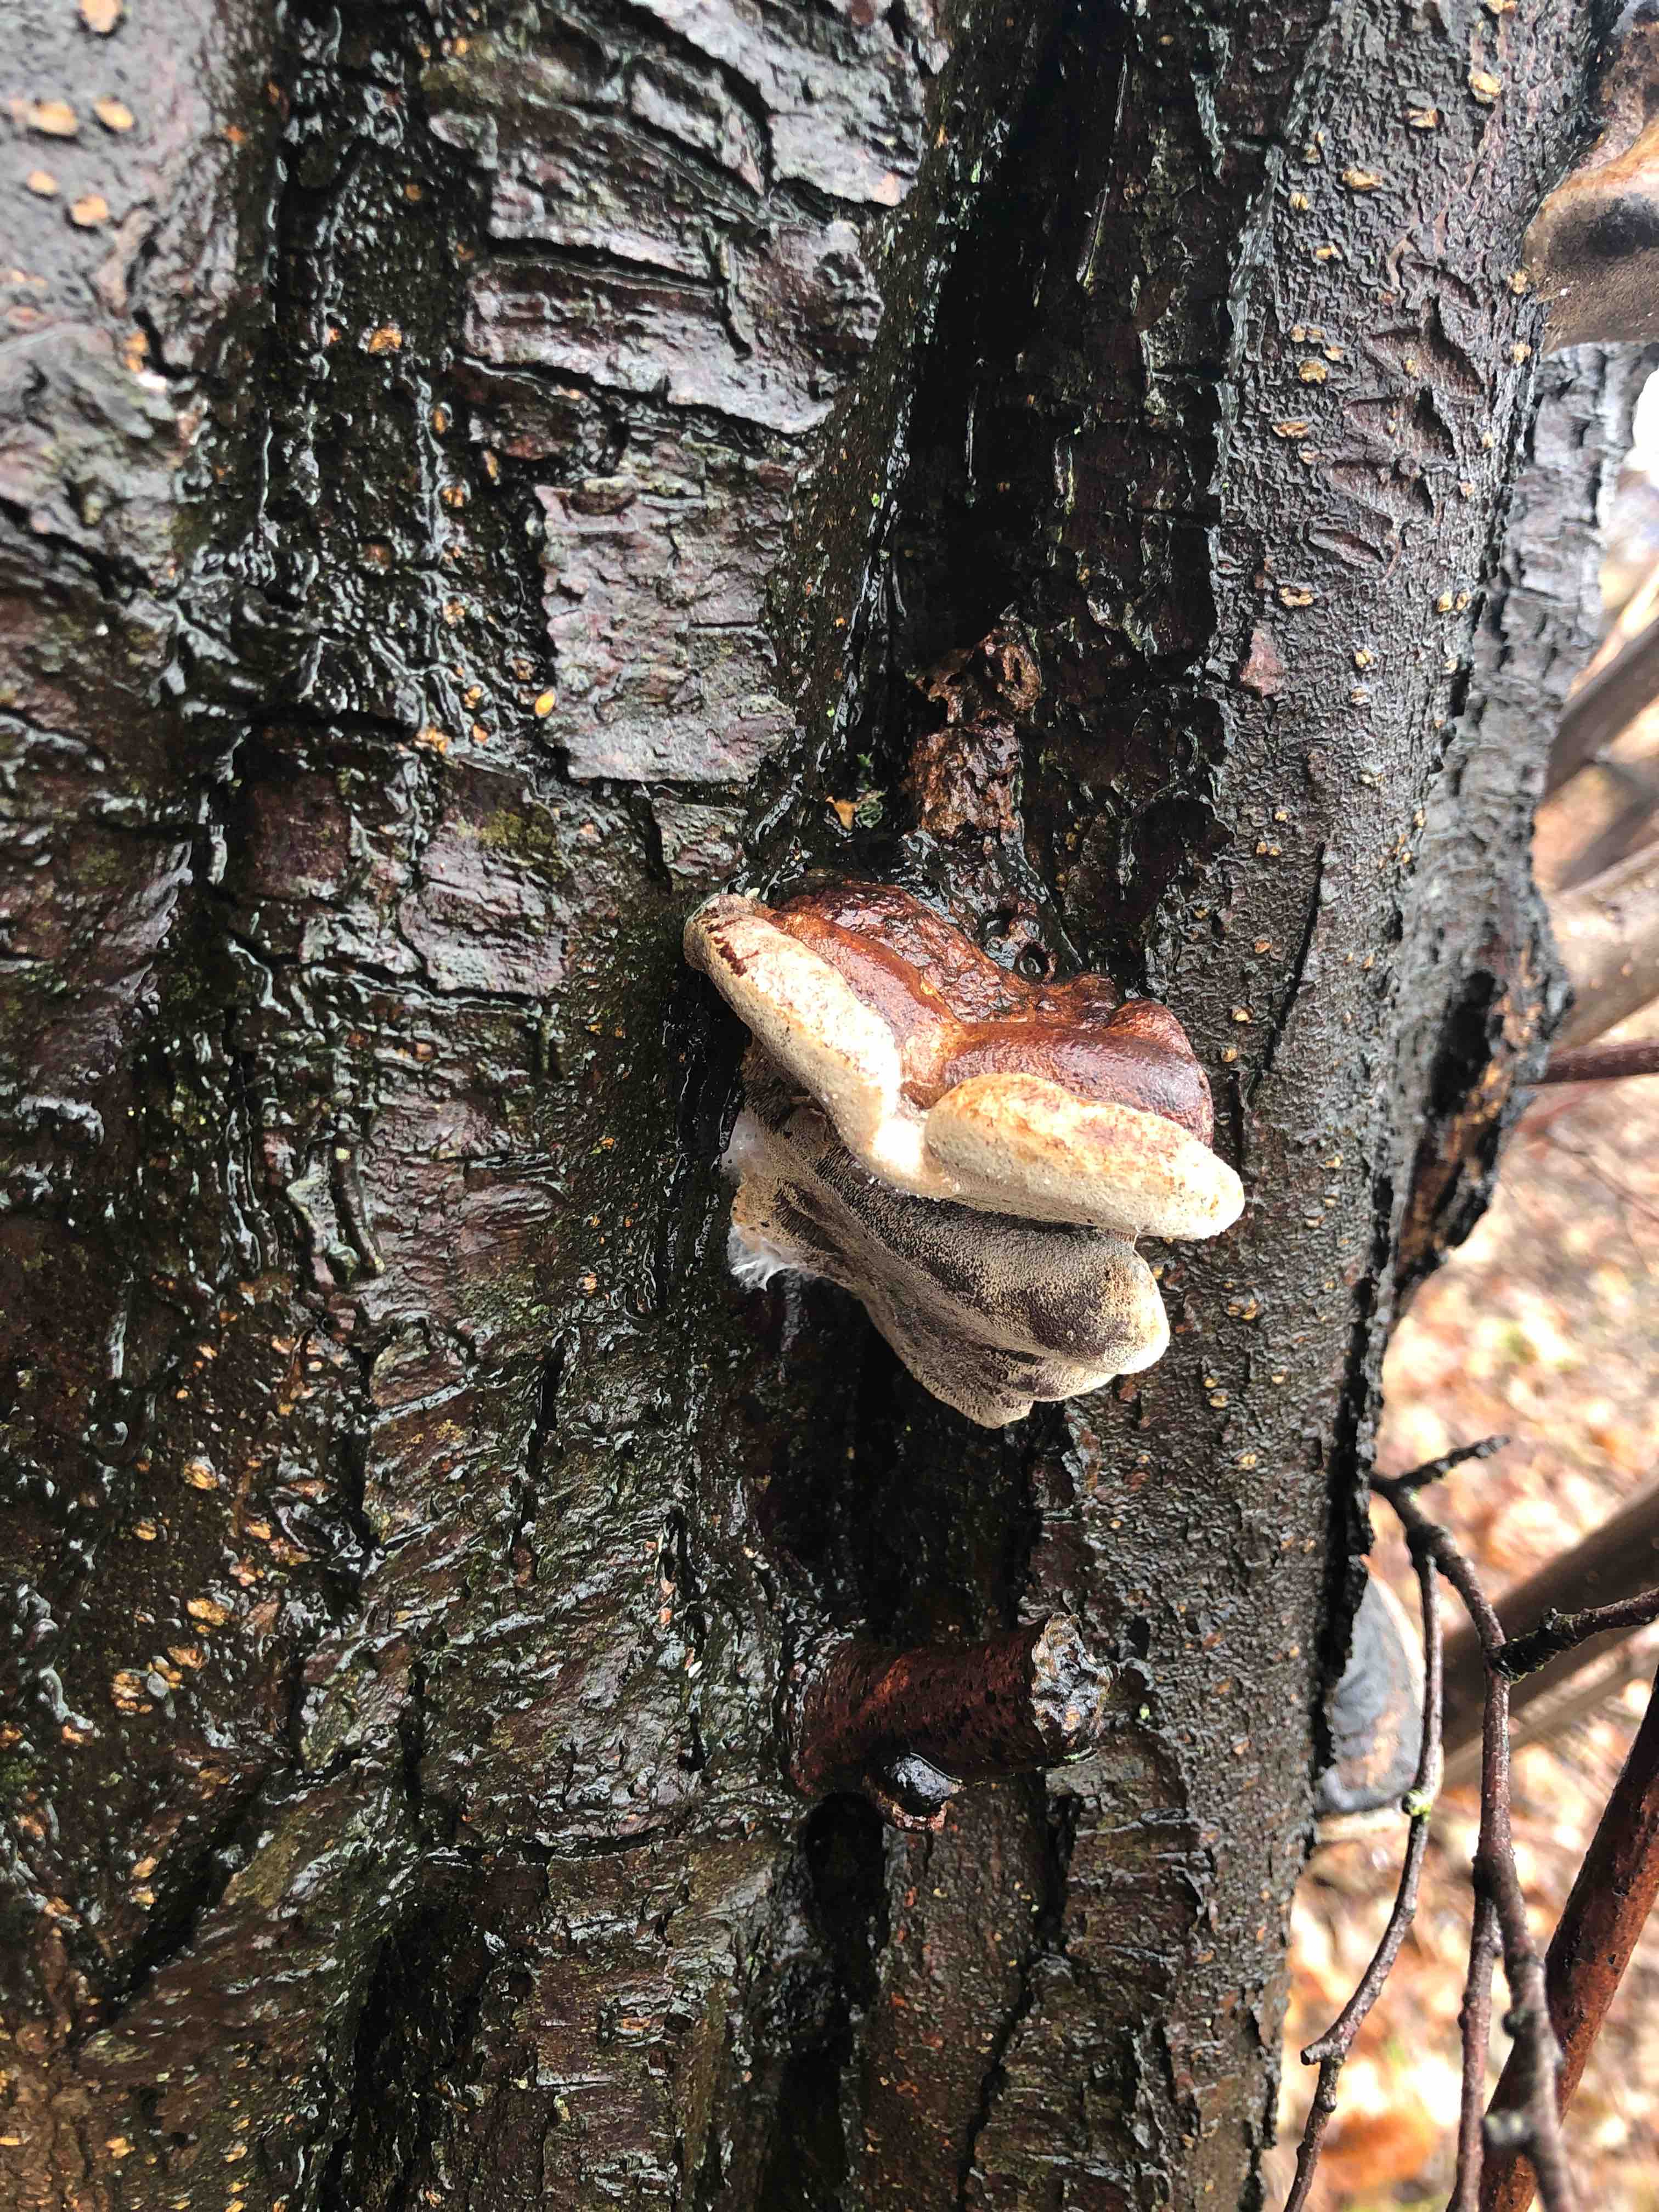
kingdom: Fungi
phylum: Basidiomycota
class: Agaricomycetes
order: Hymenochaetales
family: Hymenochaetaceae
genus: Phellinus
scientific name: Phellinus pomaceus
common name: blomme-ildporesvamp
